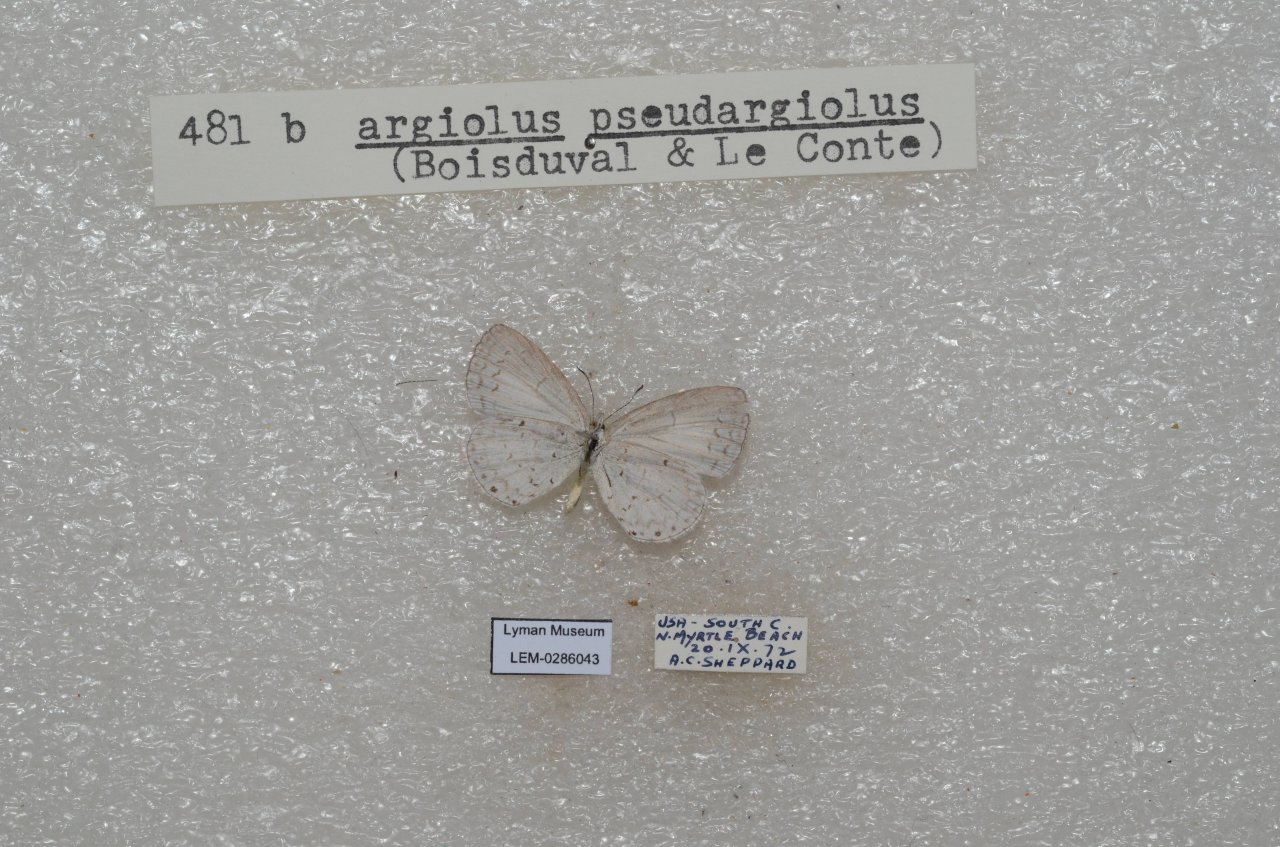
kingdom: Animalia
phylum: Arthropoda
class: Insecta
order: Lepidoptera
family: Lycaenidae
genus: Cyaniris
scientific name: Cyaniris neglecta
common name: Summer Azure
